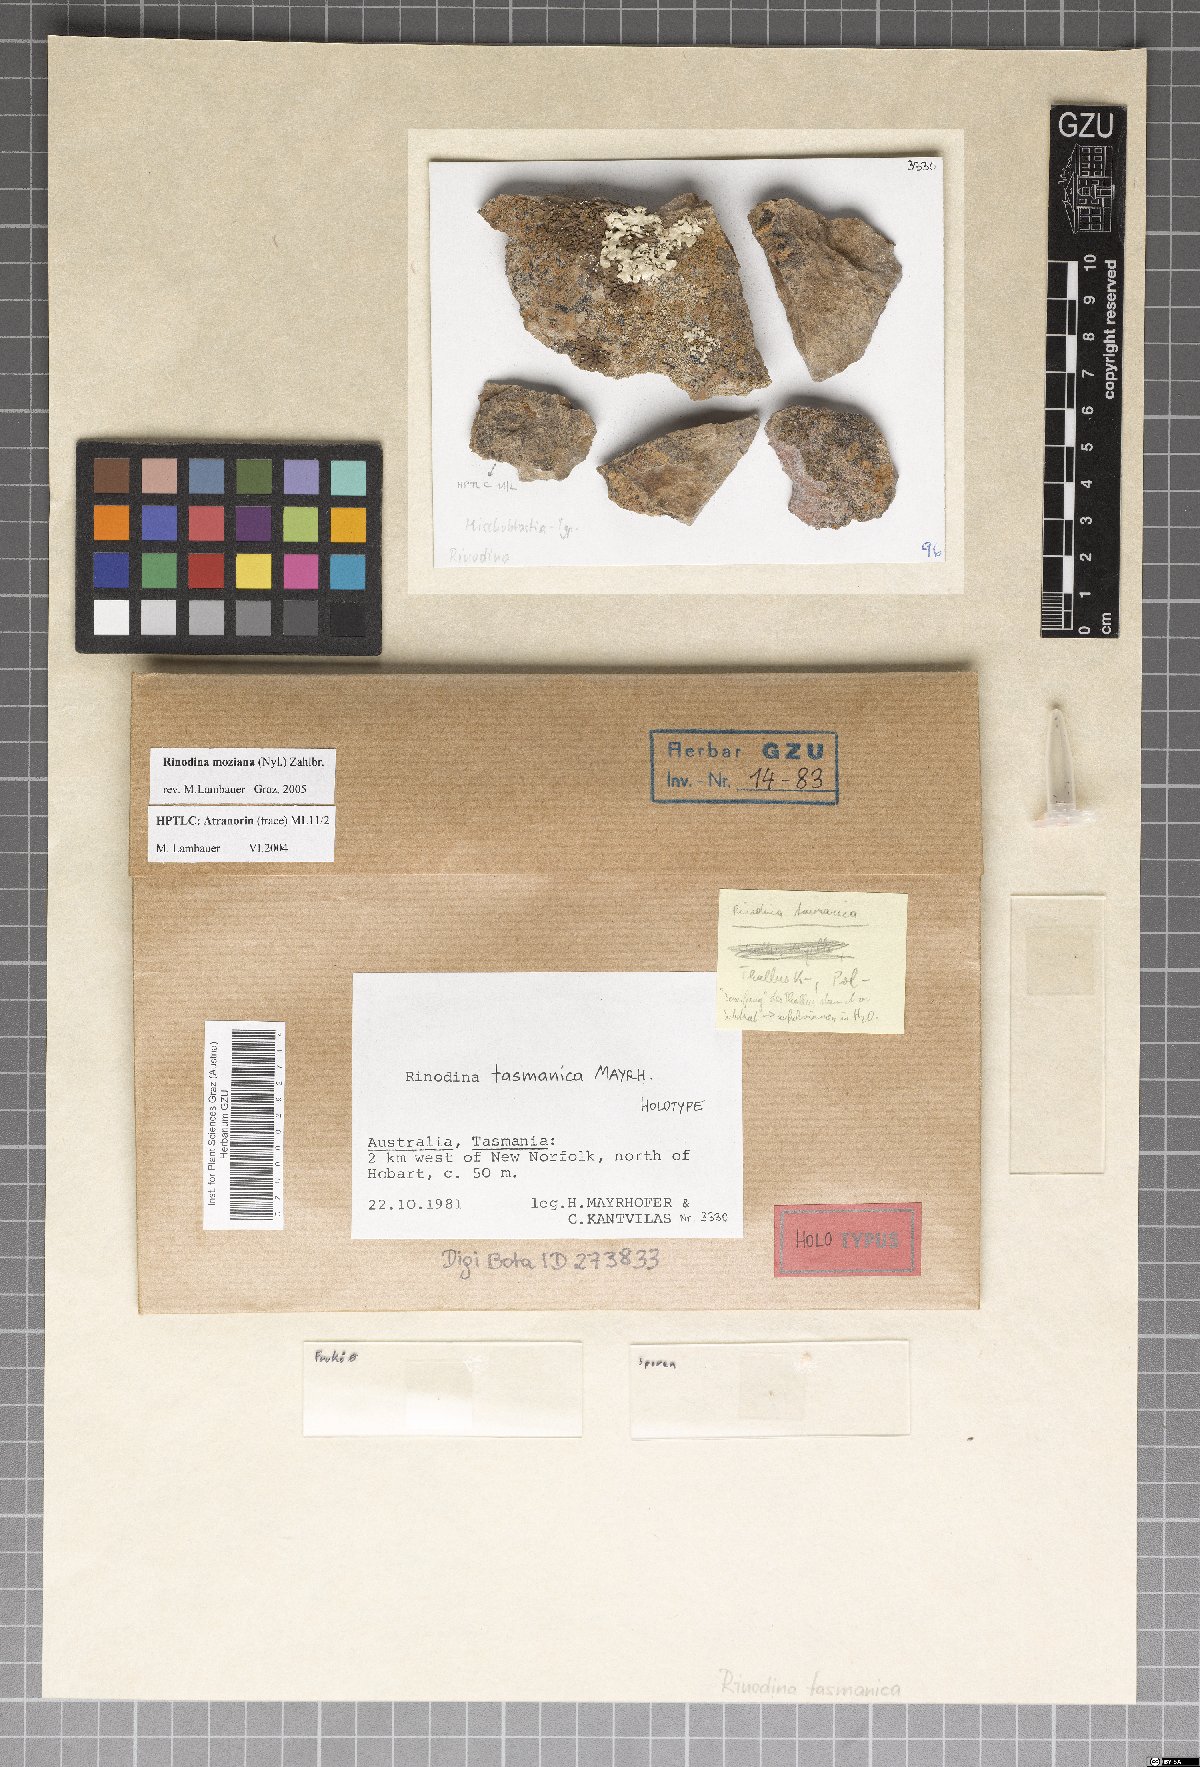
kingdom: Fungi
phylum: Ascomycota
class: Lecanoromycetes
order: Caliciales
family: Physciaceae
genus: Rinodina
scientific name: Rinodina tasmanica
